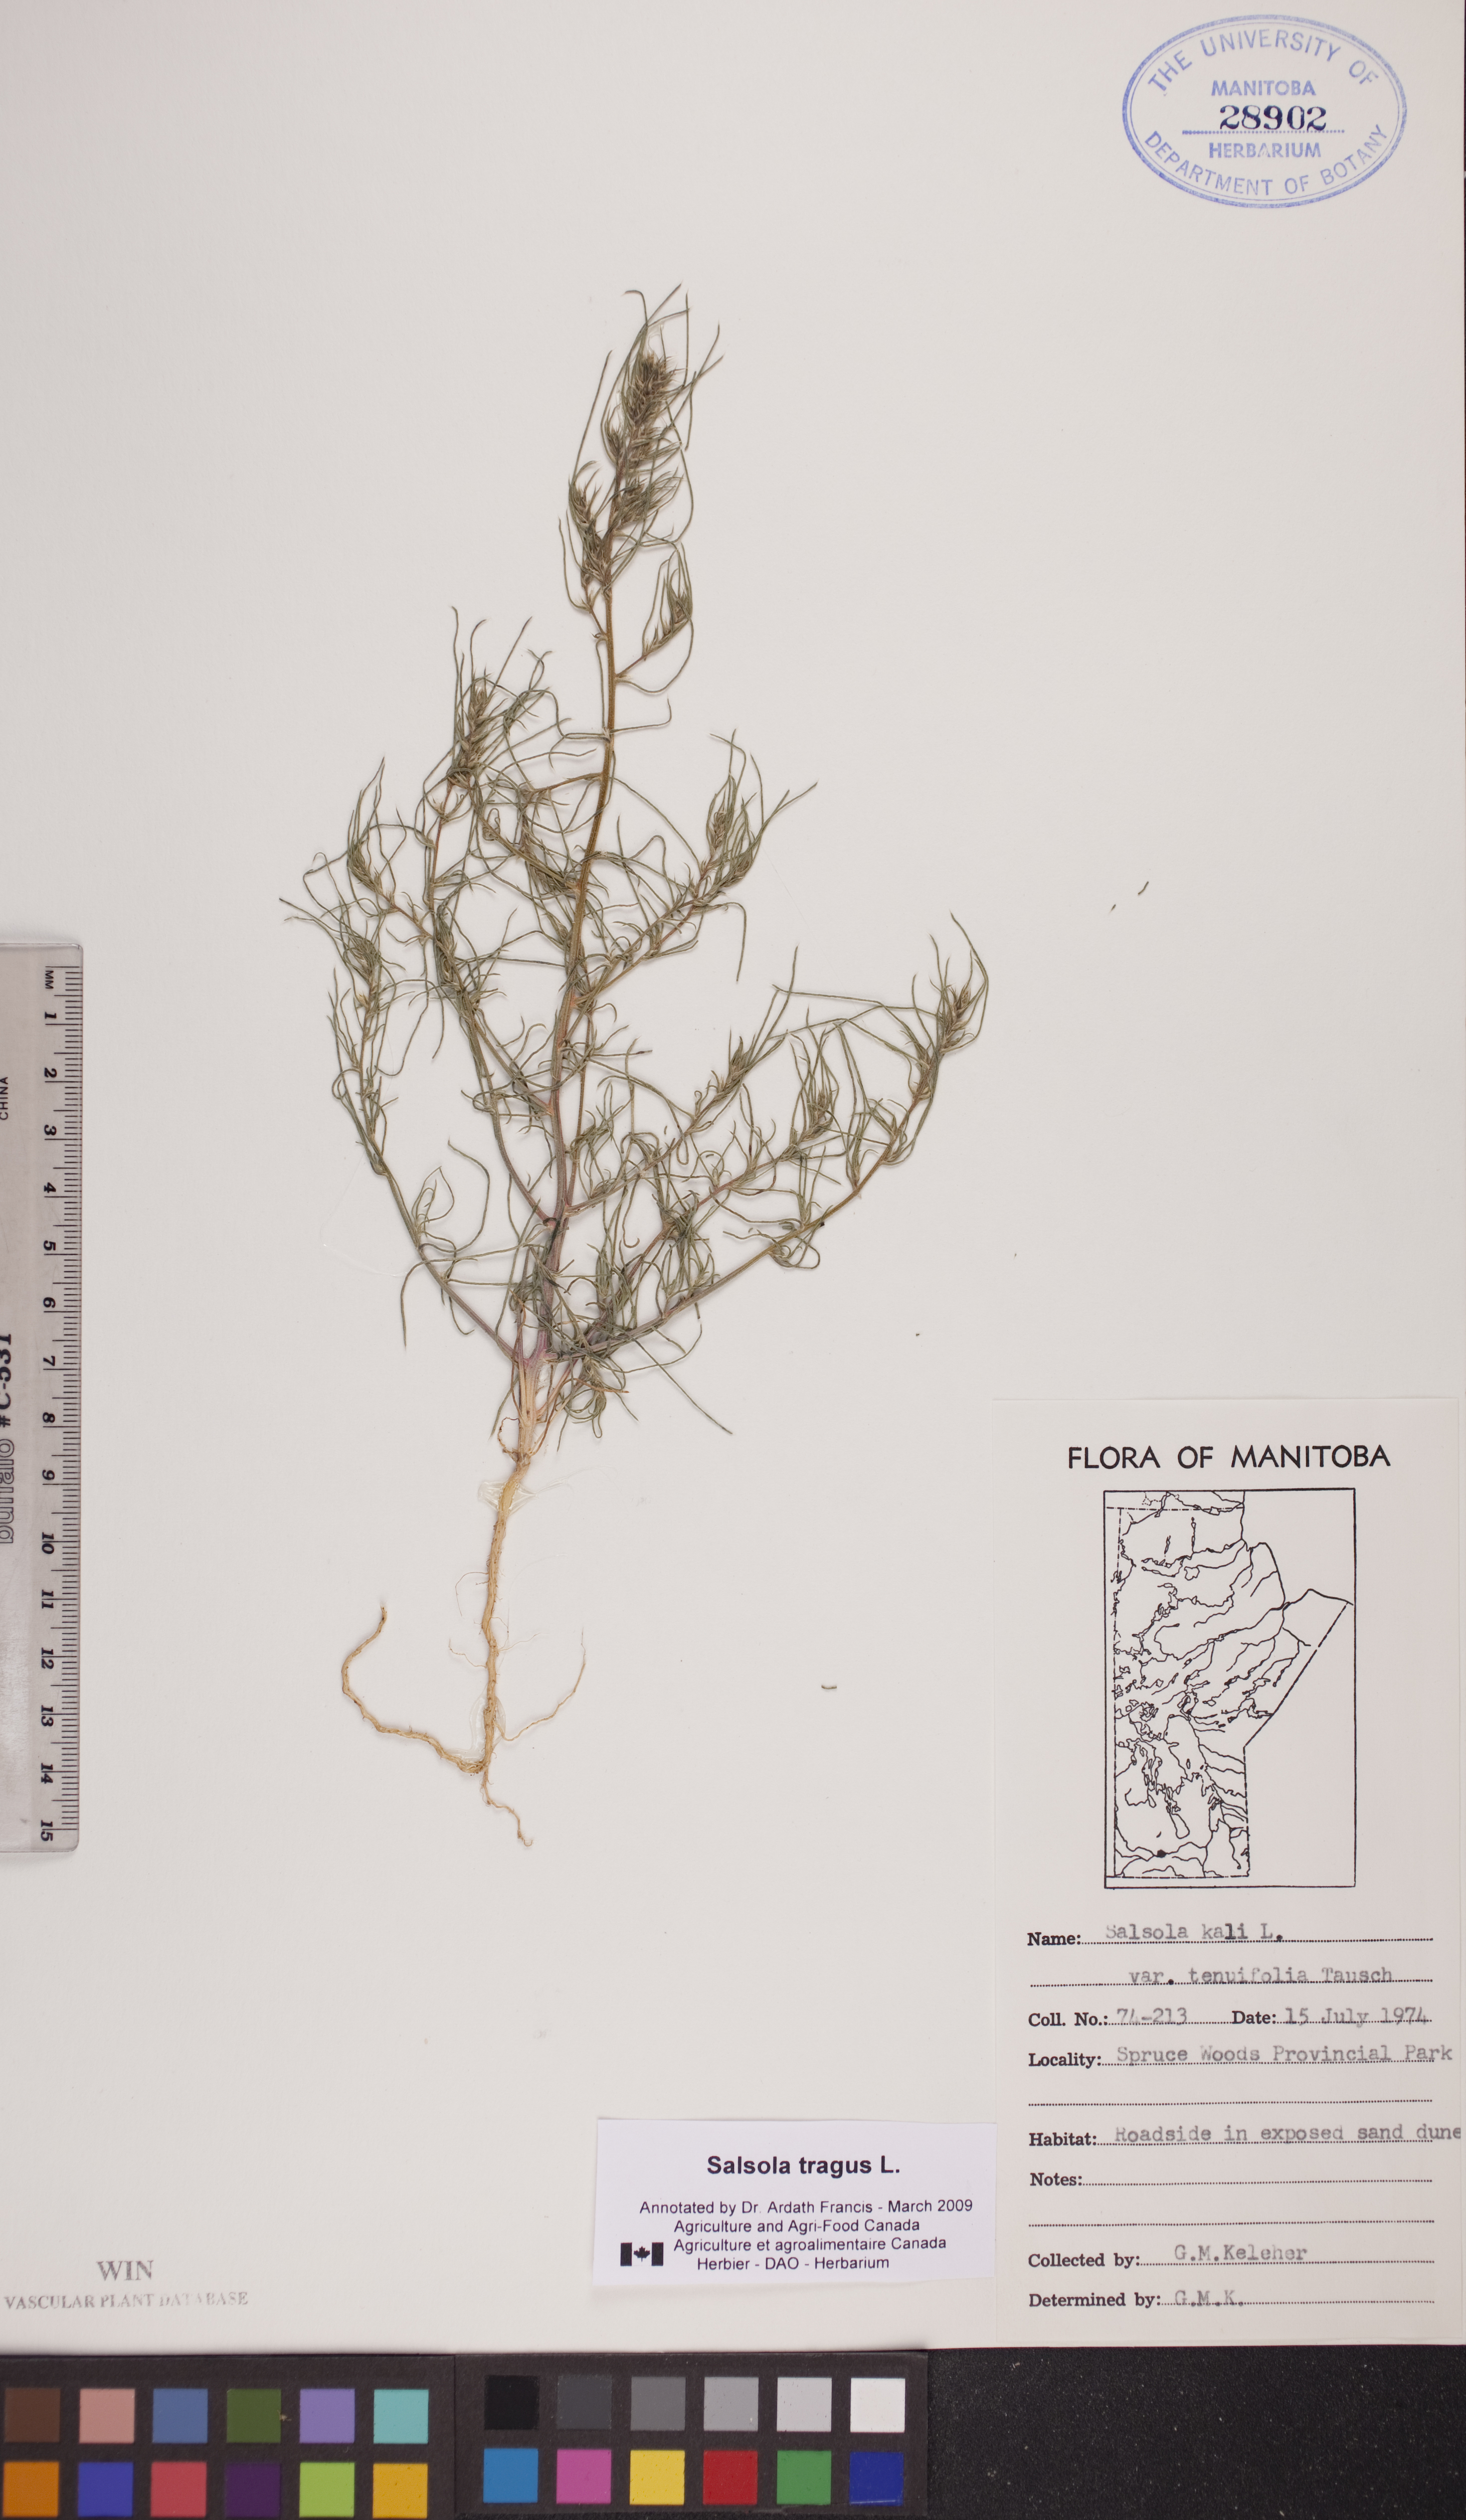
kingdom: Plantae
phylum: Tracheophyta
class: Magnoliopsida
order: Caryophyllales
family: Amaranthaceae
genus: Salsola
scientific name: Salsola tragus
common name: Prickly russian thistle
